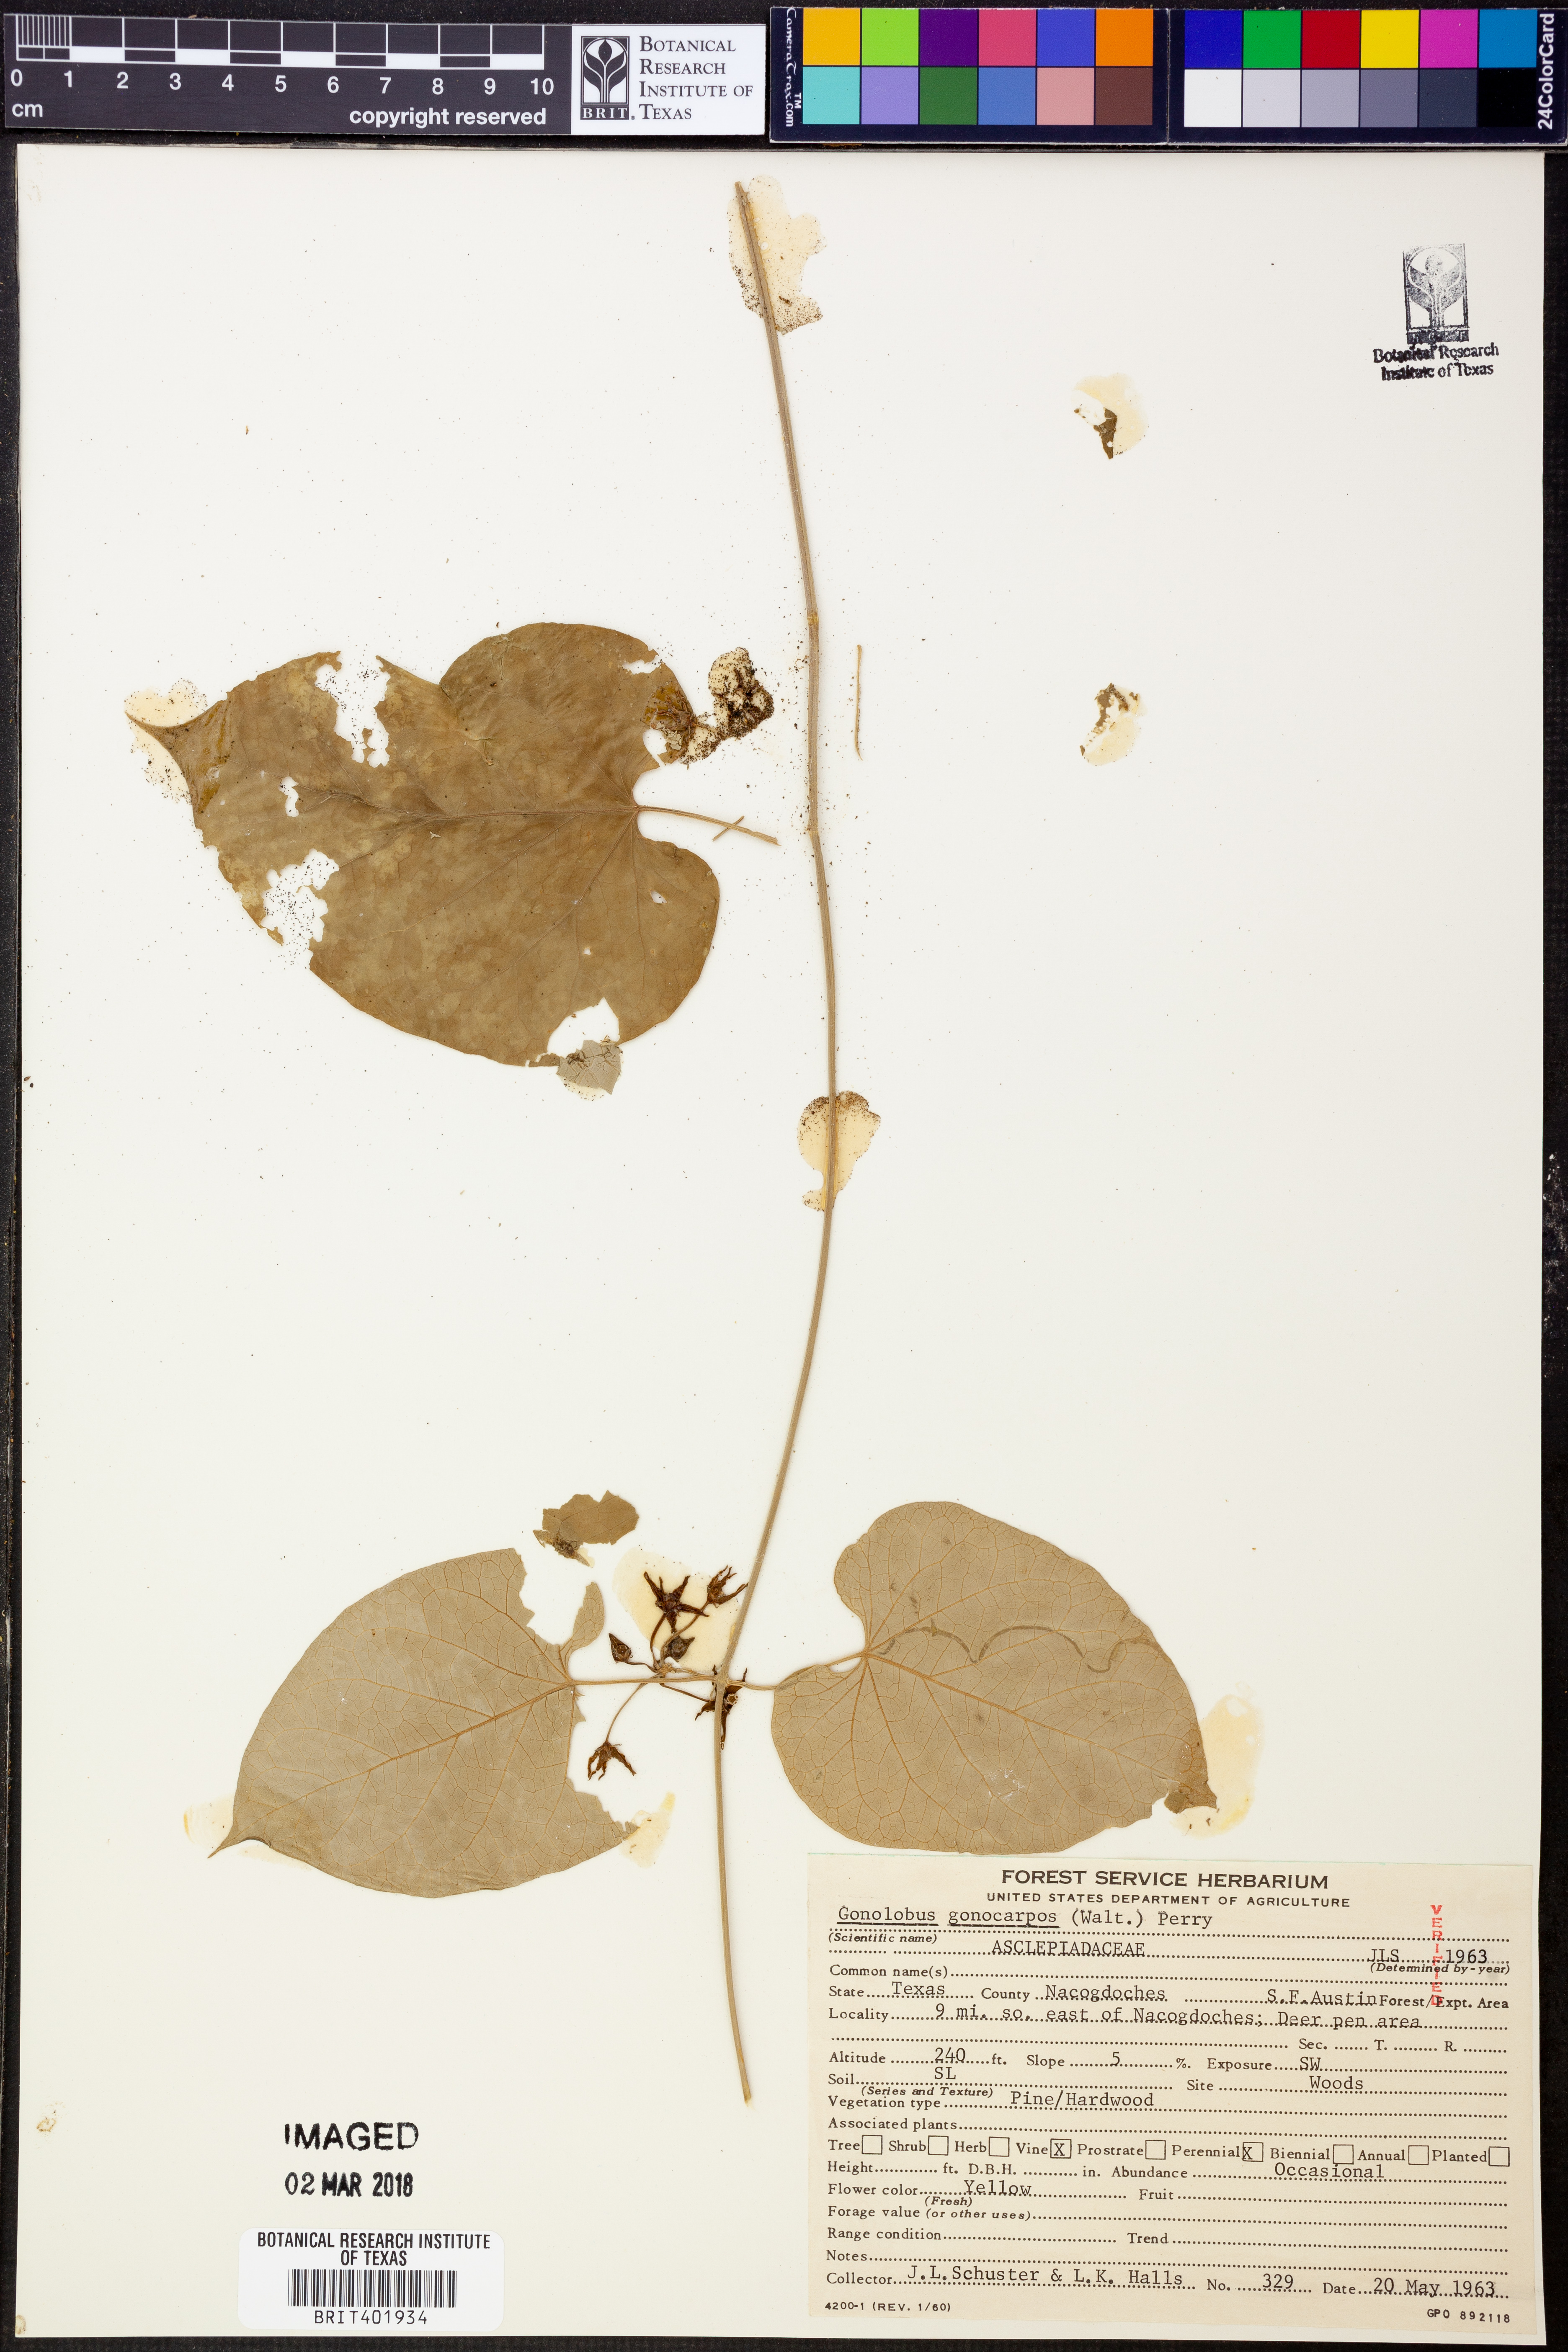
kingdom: Plantae
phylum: Tracheophyta
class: Magnoliopsida
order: Gentianales
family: Apocynaceae
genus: Gonolobus
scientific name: Gonolobus gonocarpus
